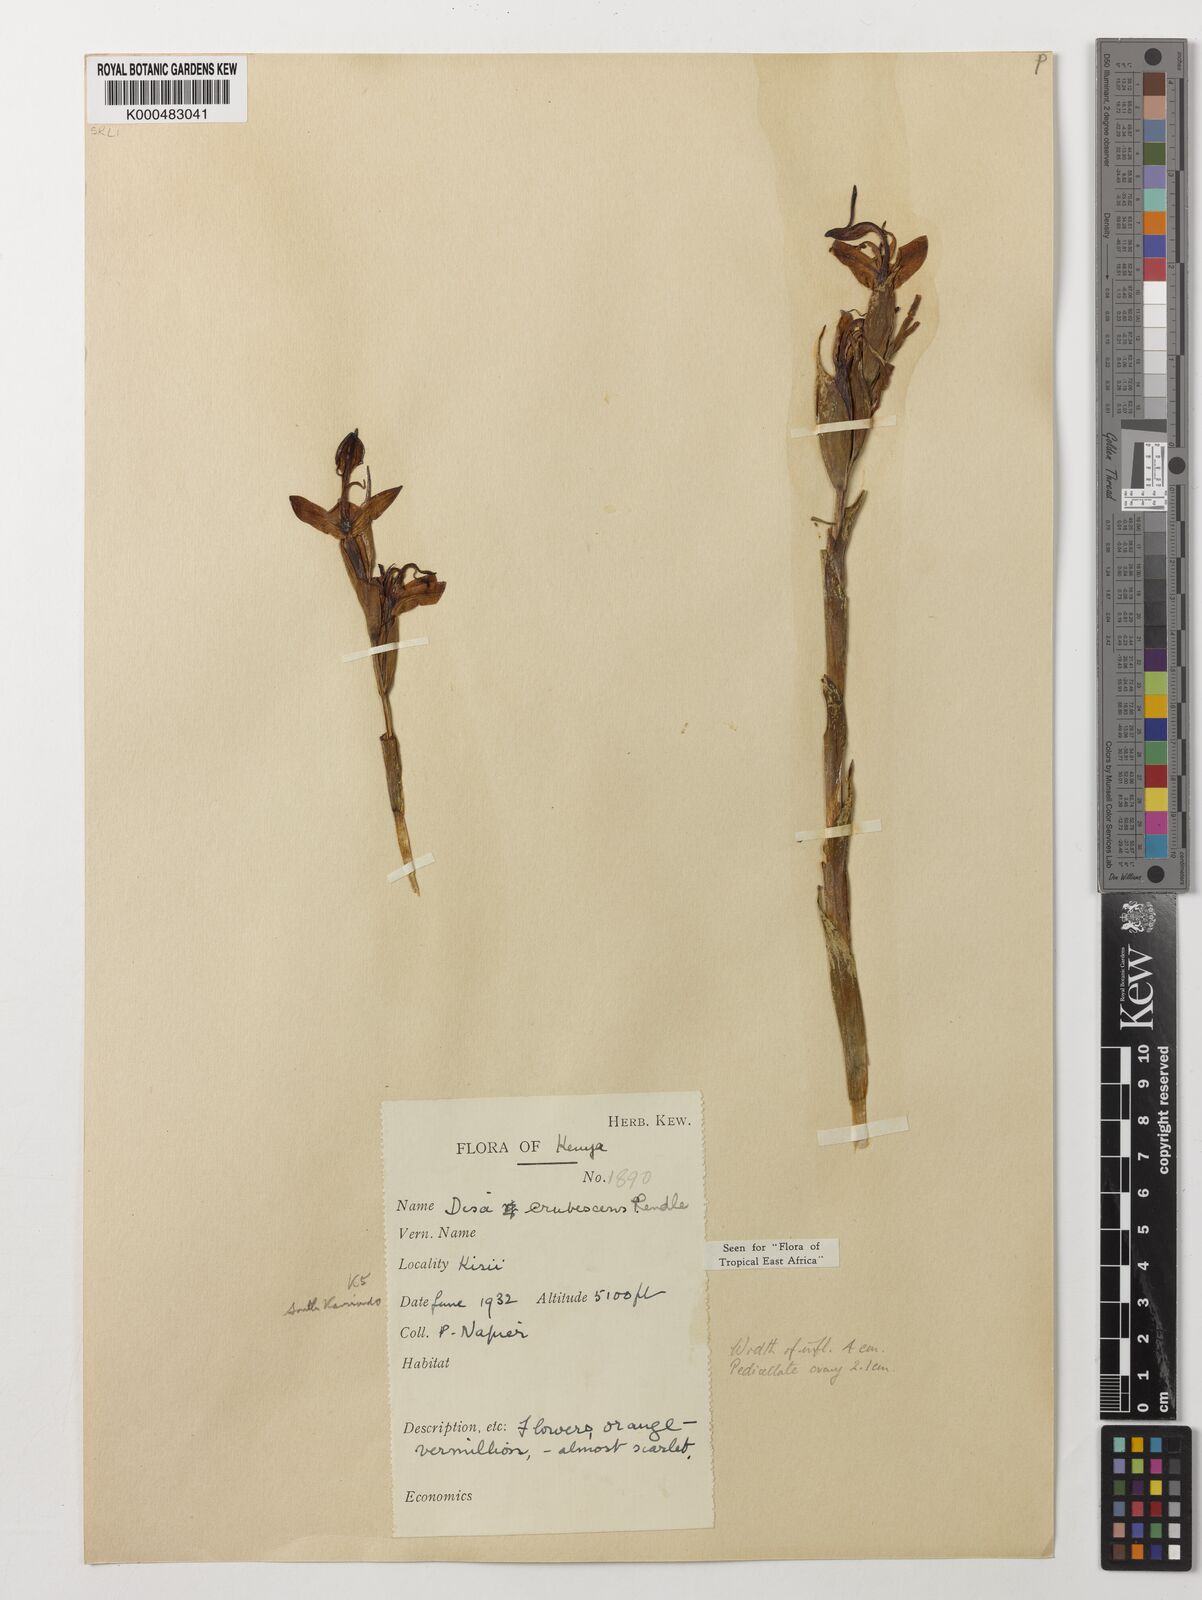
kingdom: Plantae
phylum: Tracheophyta
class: Liliopsida
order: Asparagales
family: Orchidaceae
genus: Disa
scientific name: Disa erubescens
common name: The rose disa
